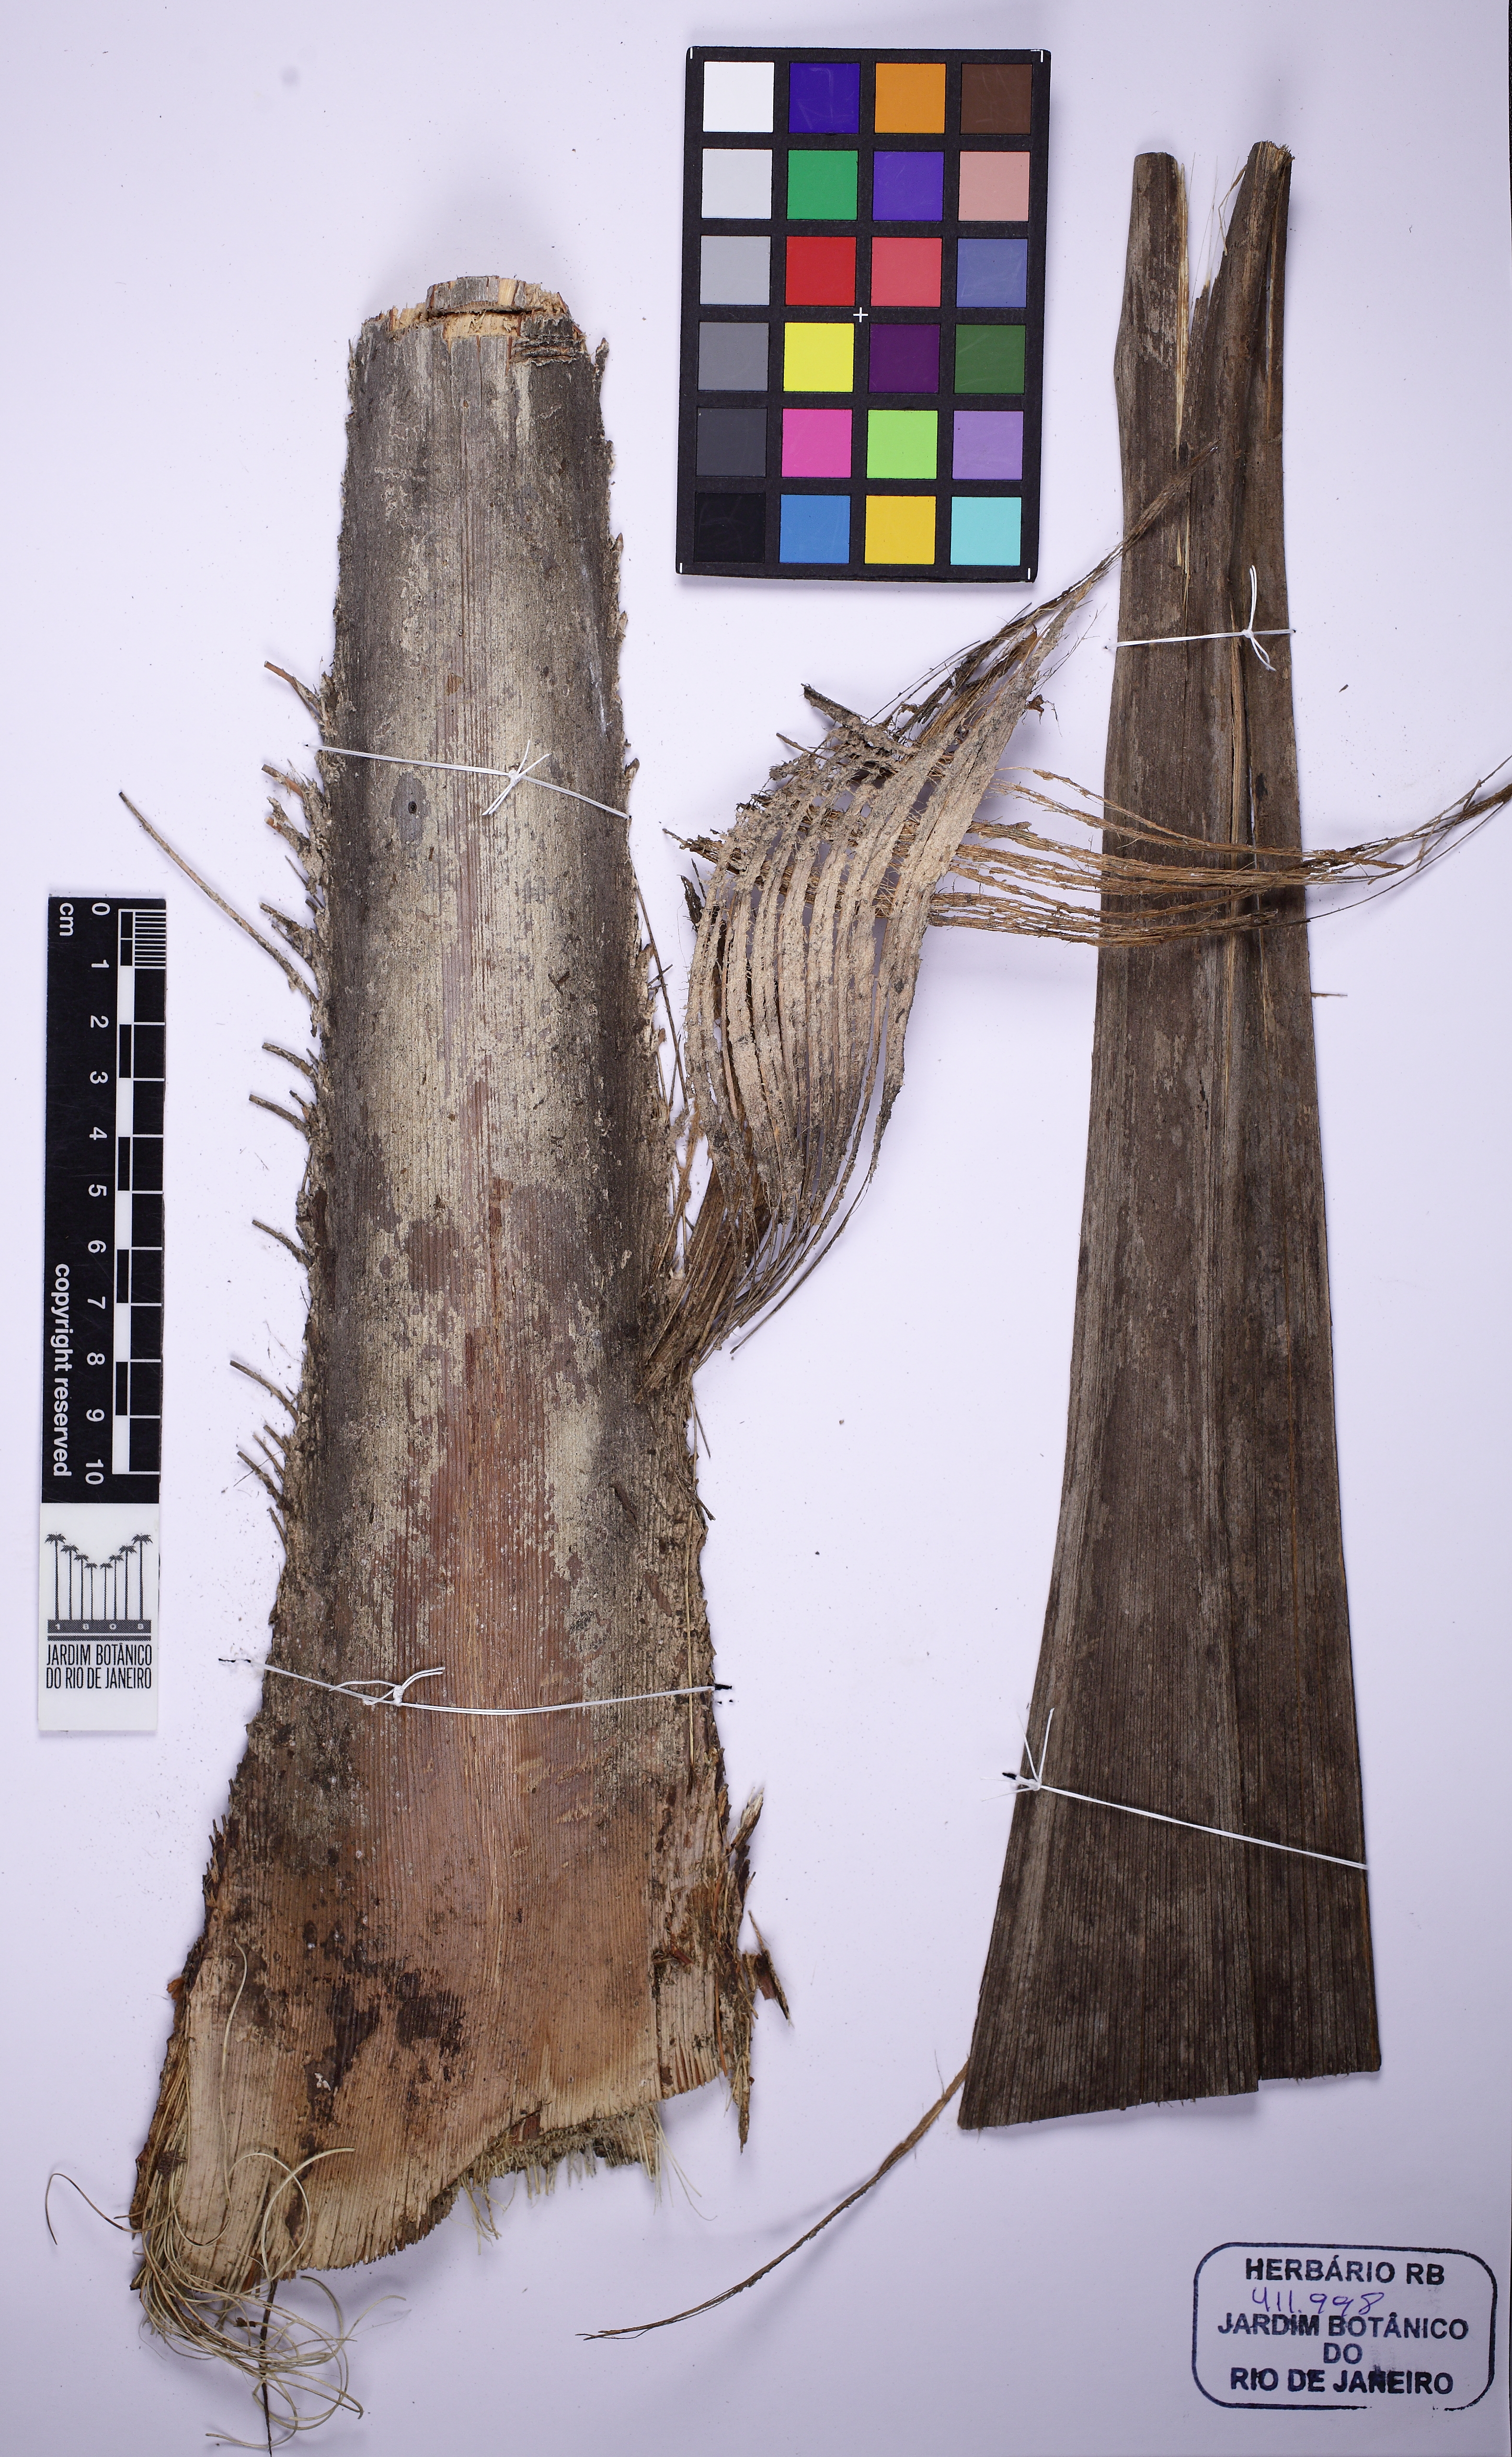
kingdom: Plantae
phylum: Tracheophyta
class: Liliopsida
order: Arecales
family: Arecaceae
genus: Syagrus
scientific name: Syagrus cocoides
